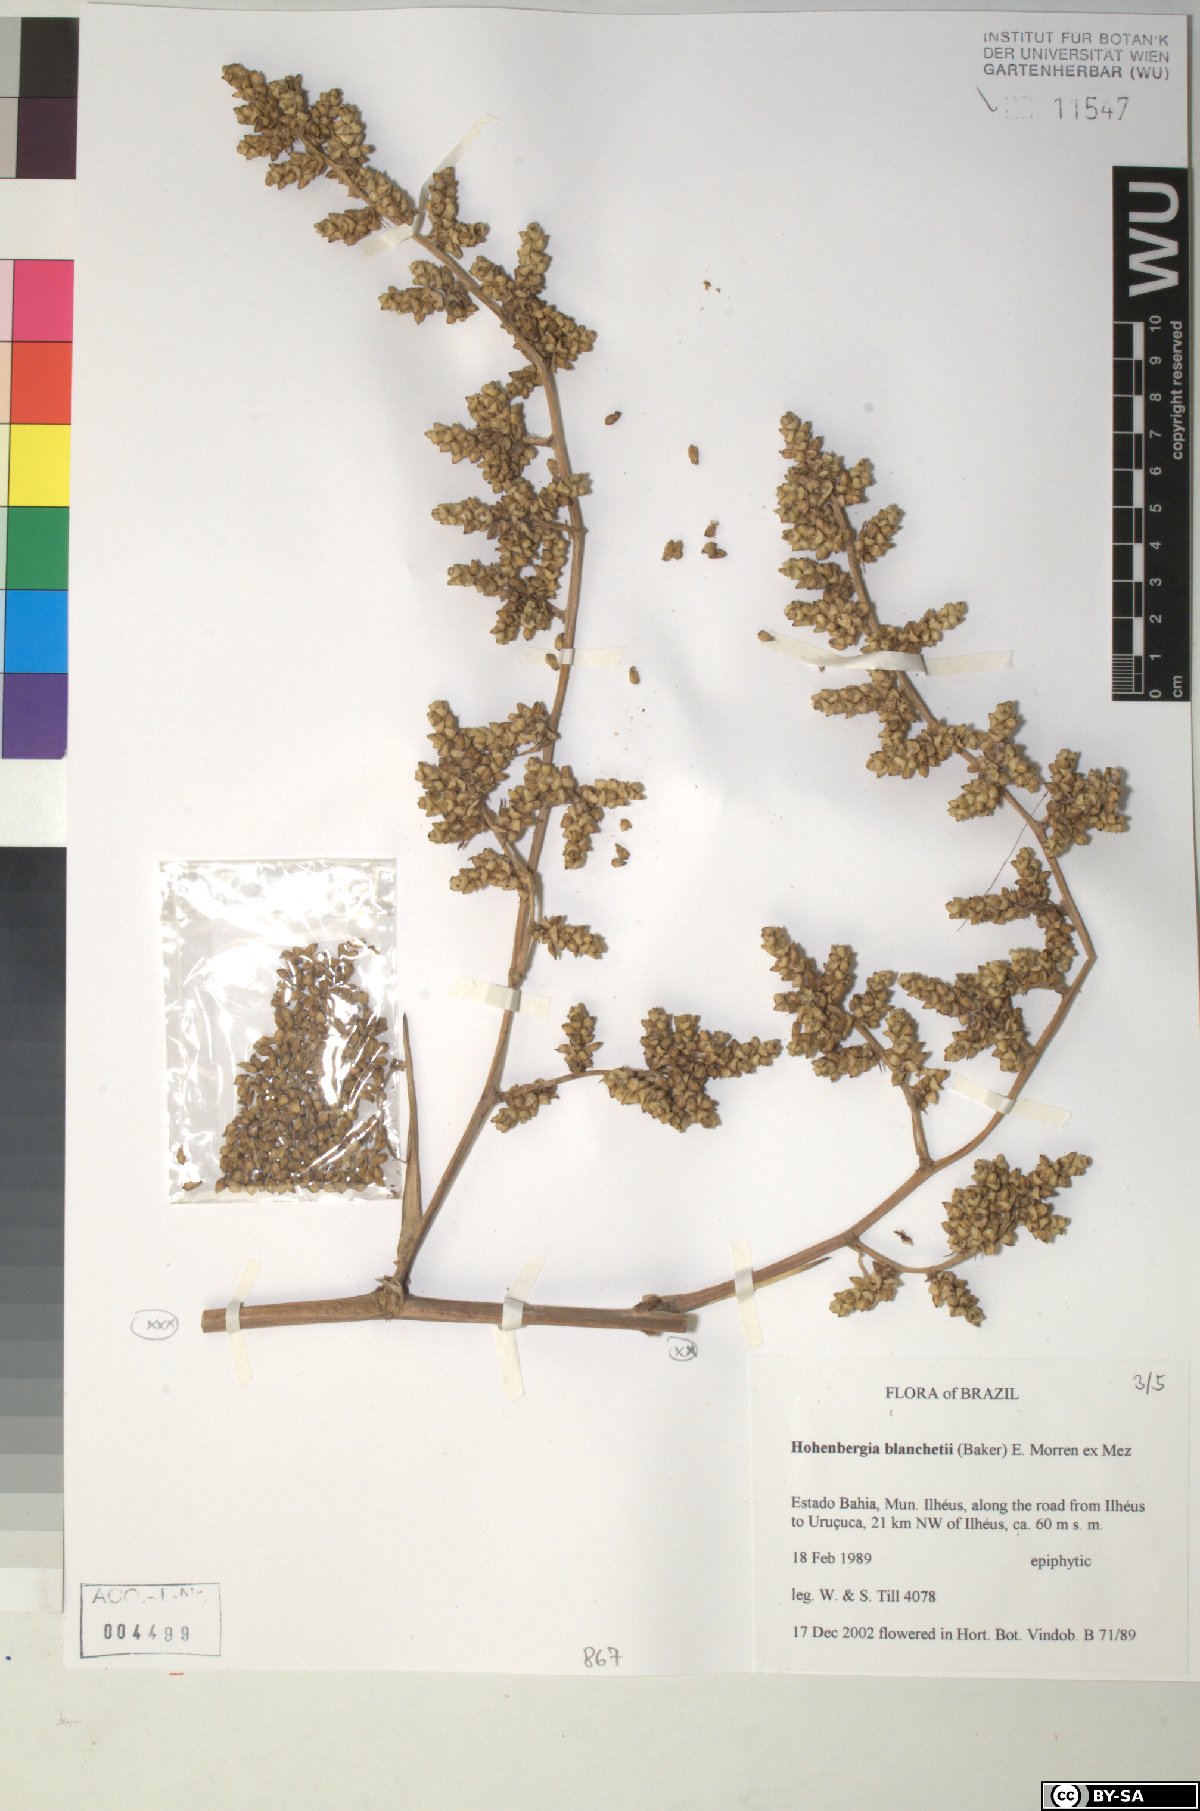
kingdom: Plantae
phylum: Tracheophyta
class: Liliopsida
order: Poales
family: Bromeliaceae
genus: Hohenbergia
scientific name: Hohenbergia blanchetii
